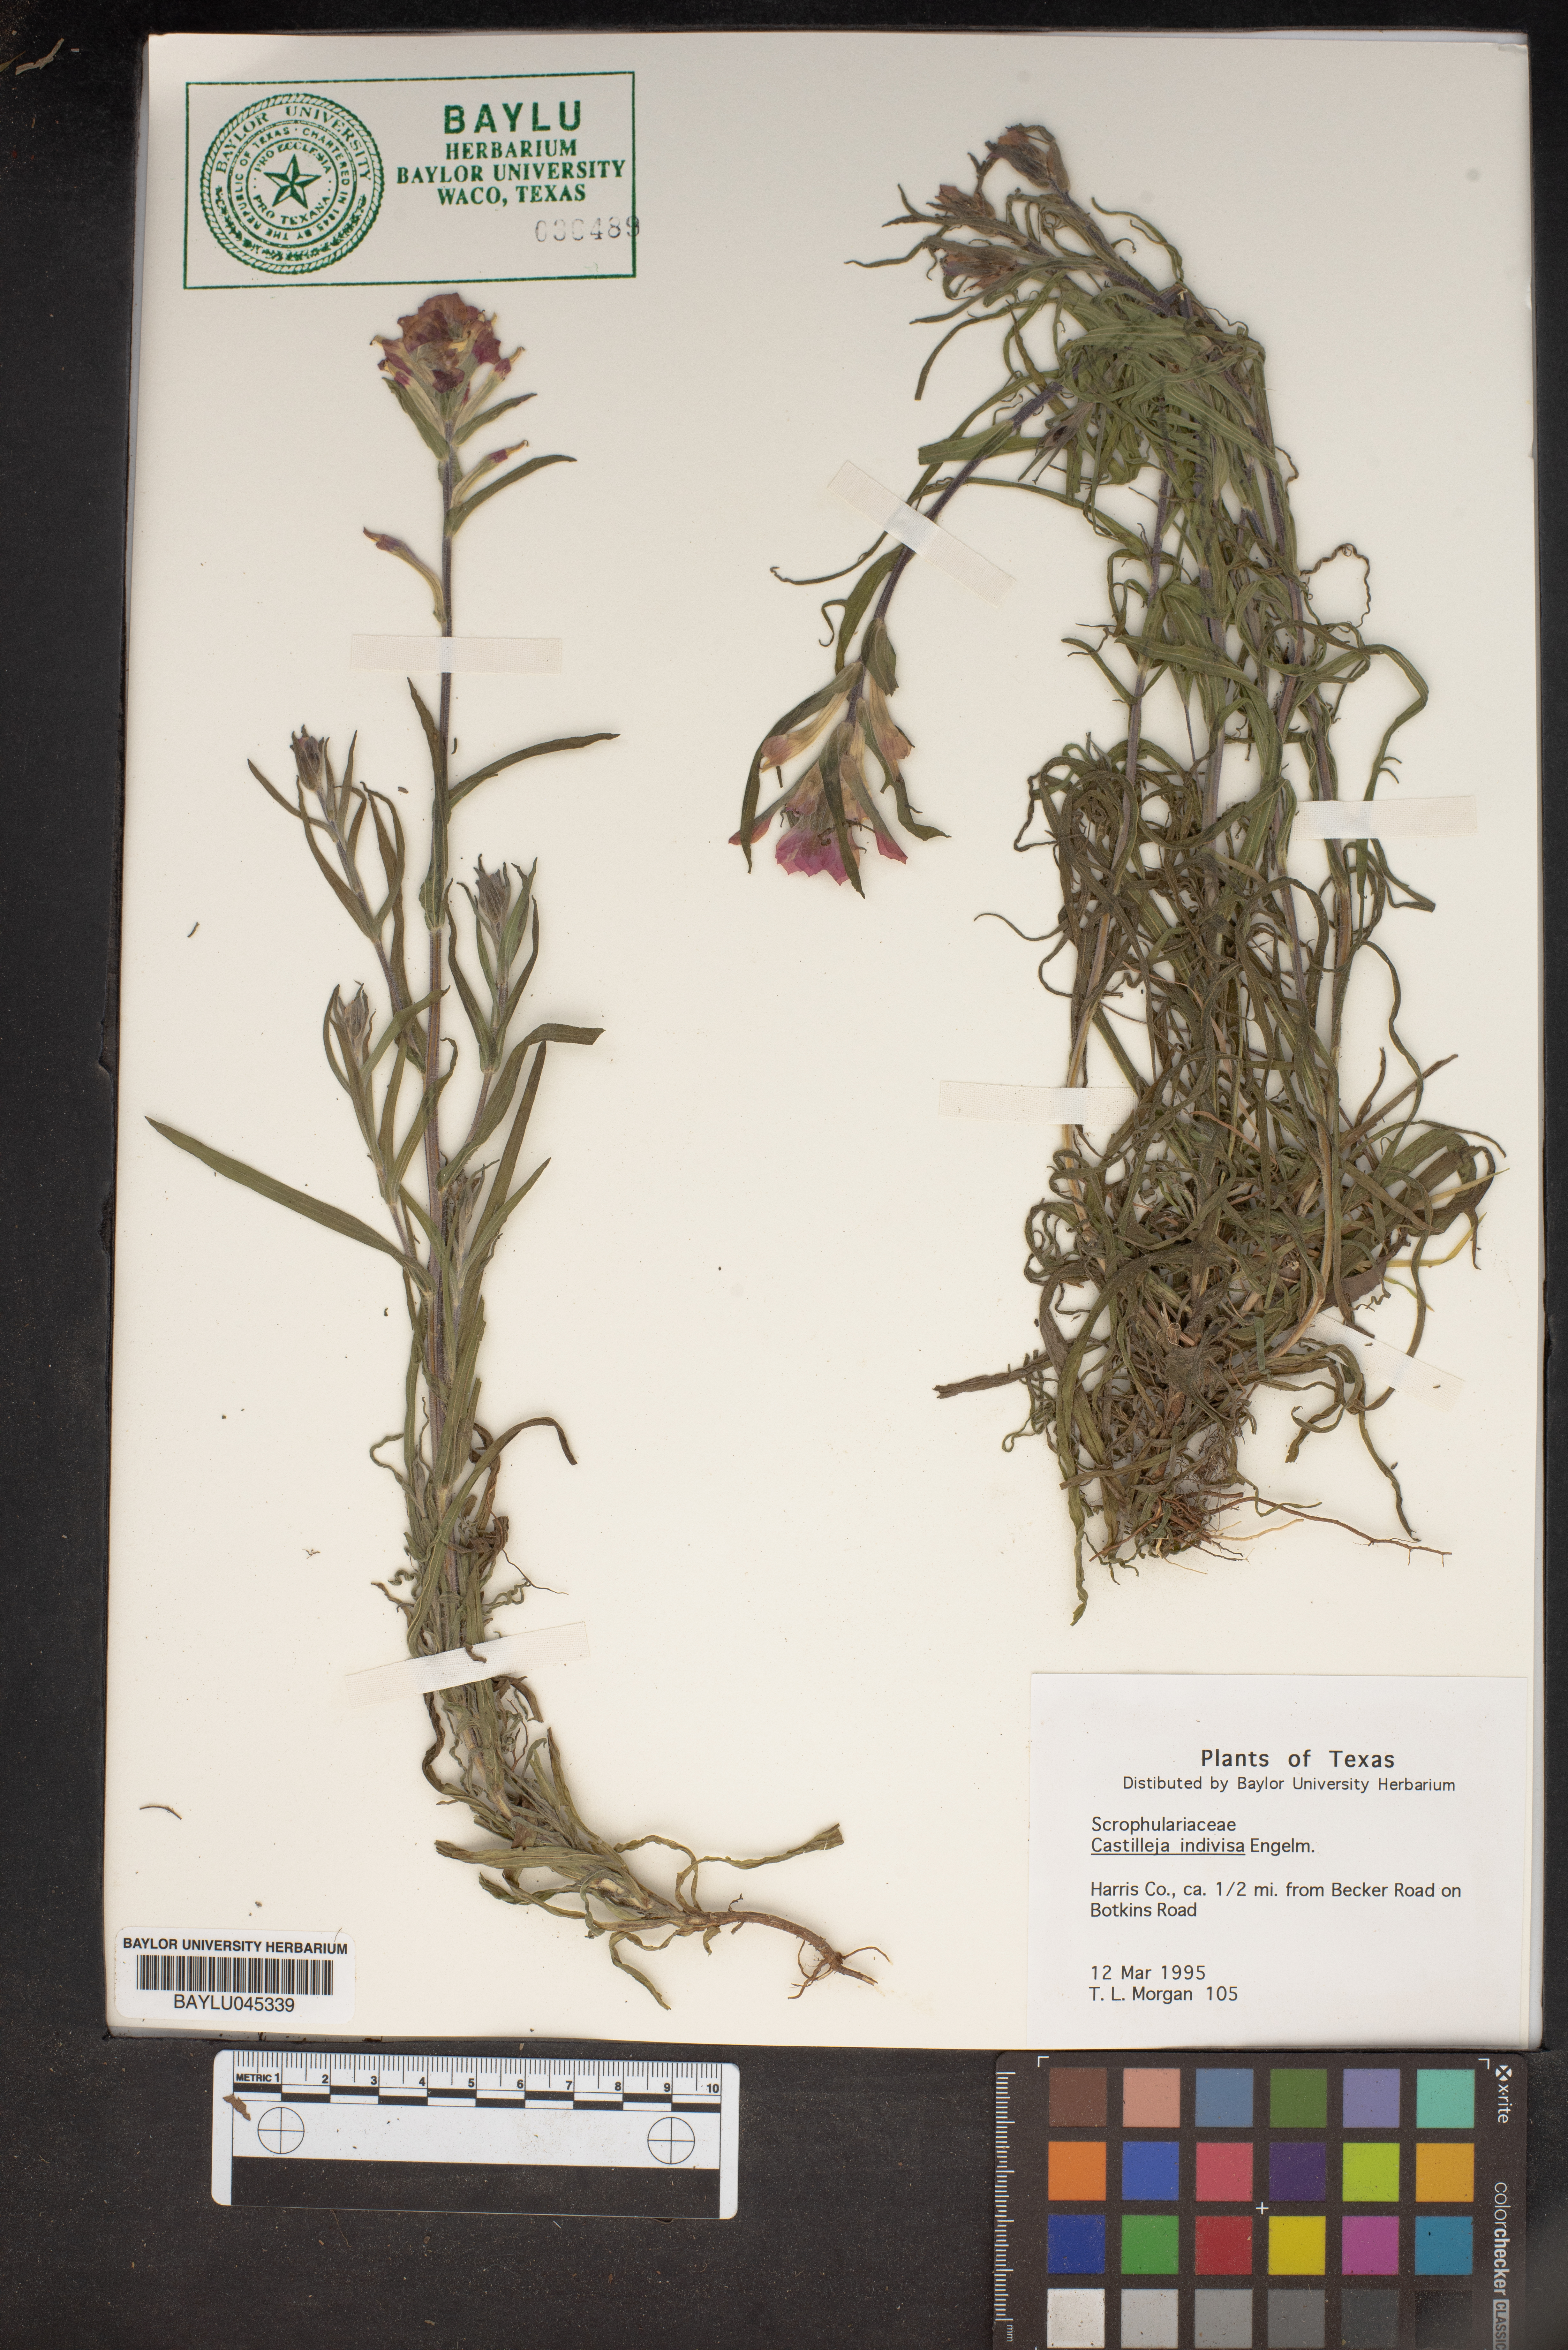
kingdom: Plantae
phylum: Tracheophyta
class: Magnoliopsida
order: Lamiales
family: Orobanchaceae
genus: Castilleja
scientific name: Castilleja indivisa
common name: Texas paintbrush
